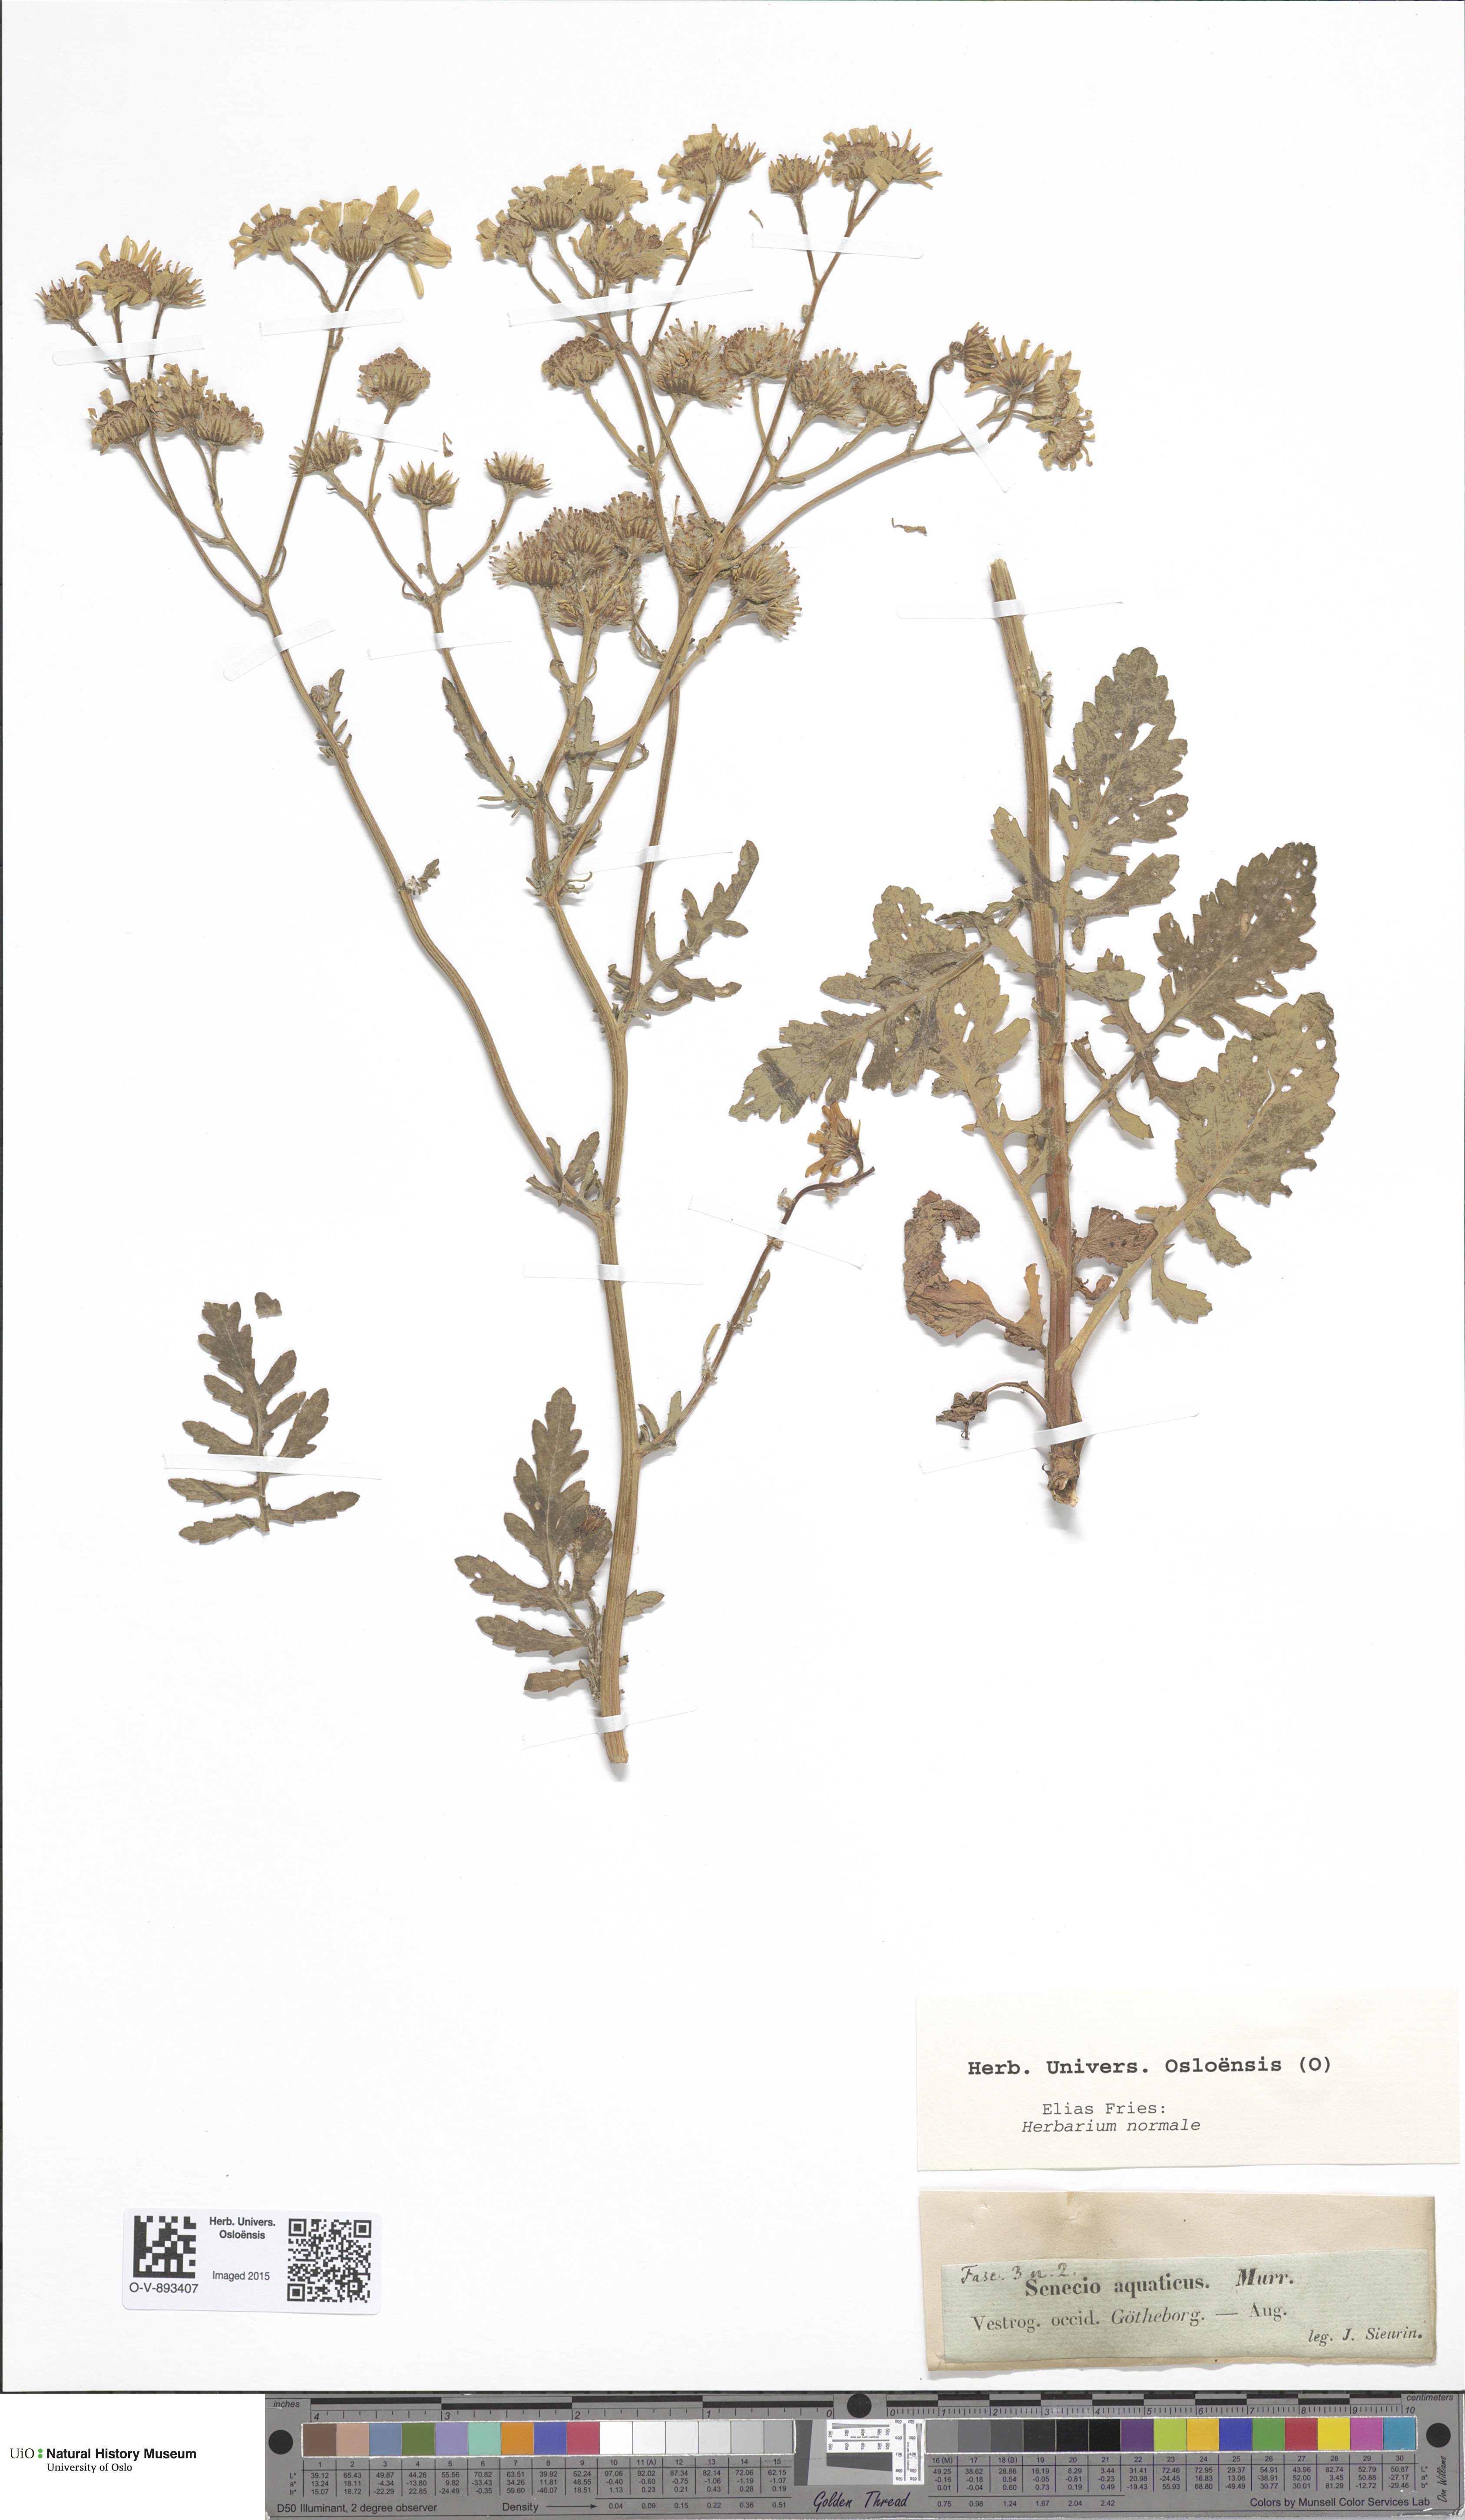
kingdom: Plantae
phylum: Tracheophyta
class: Magnoliopsida
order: Asterales
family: Asteraceae
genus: Jacobaea
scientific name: Jacobaea aquatica
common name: Water ragwort
